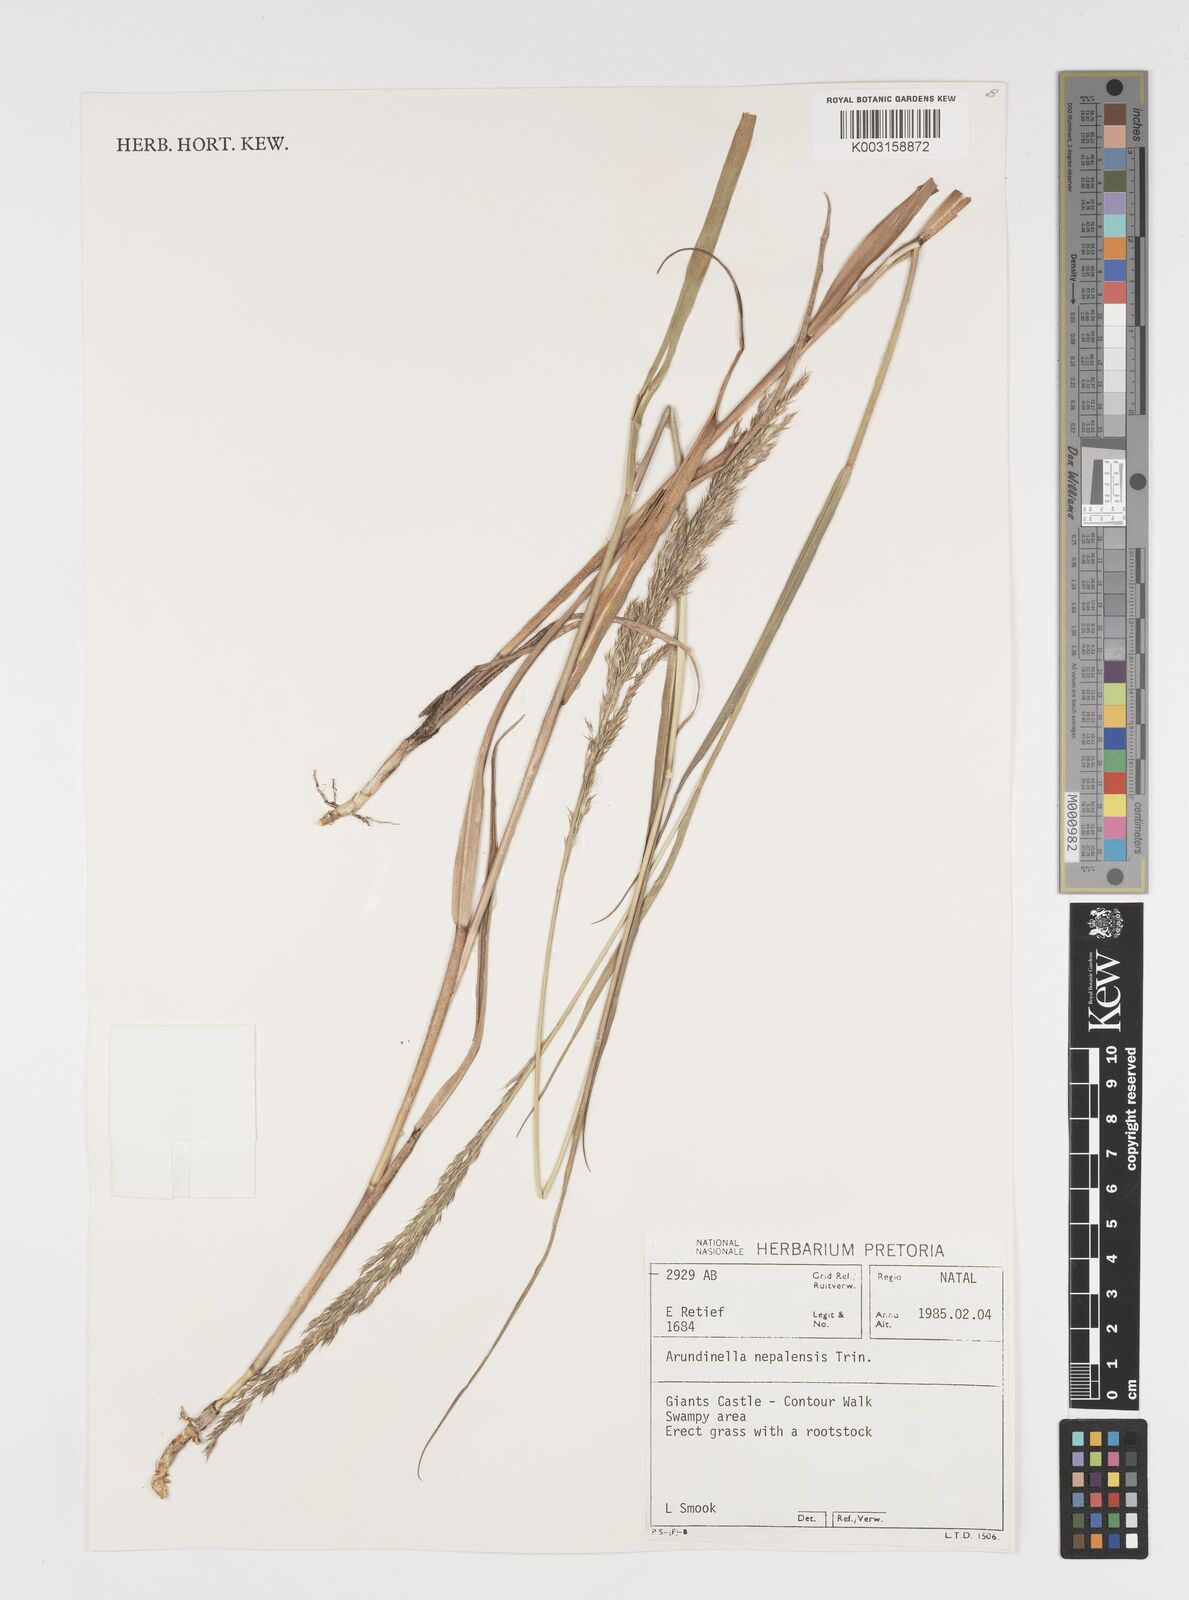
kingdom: Plantae
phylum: Tracheophyta
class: Liliopsida
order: Poales
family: Poaceae
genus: Arundinella
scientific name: Arundinella nepalensis
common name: Reed grass
